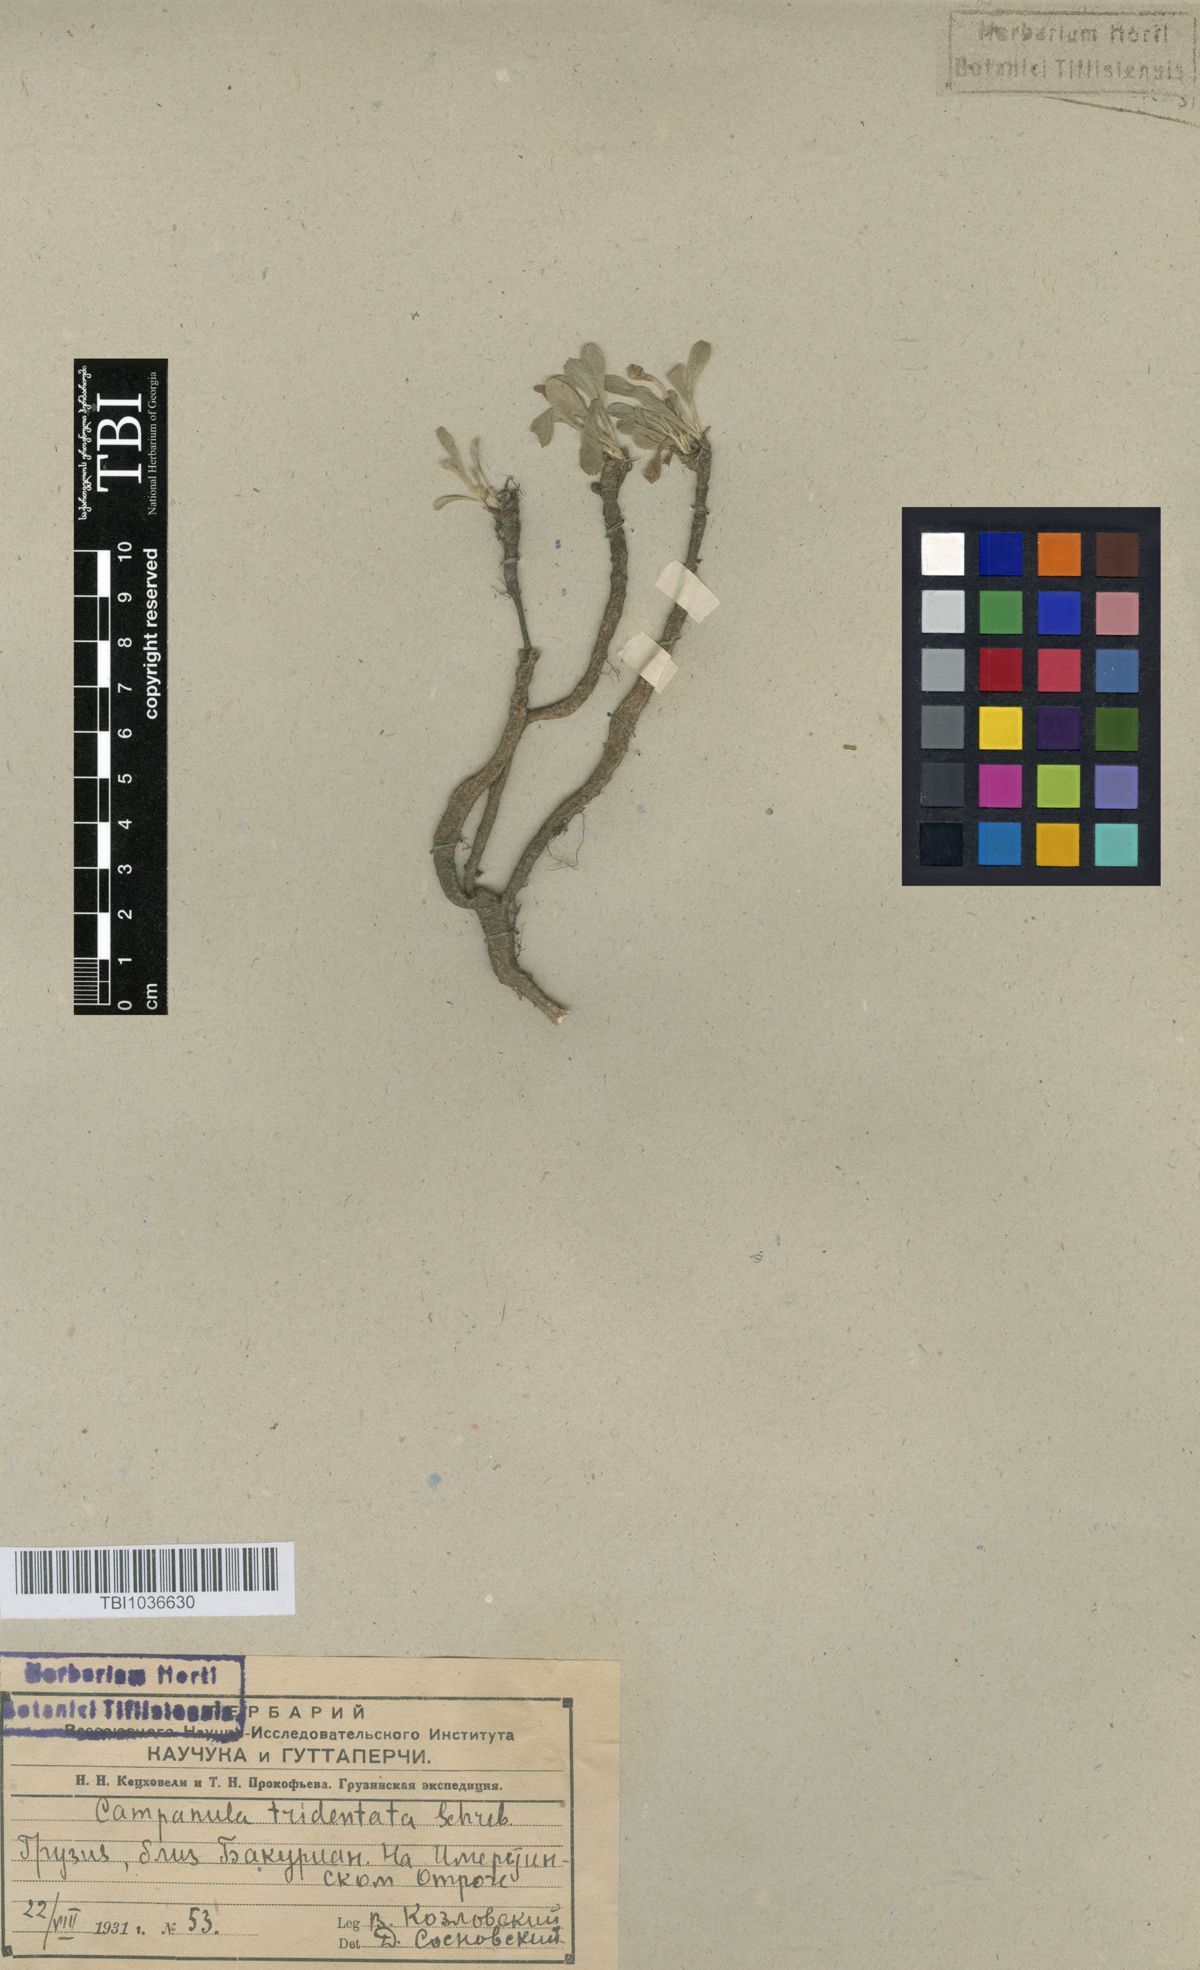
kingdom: Plantae
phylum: Tracheophyta
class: Magnoliopsida
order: Asterales
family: Campanulaceae
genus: Campanula
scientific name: Campanula tridentata
